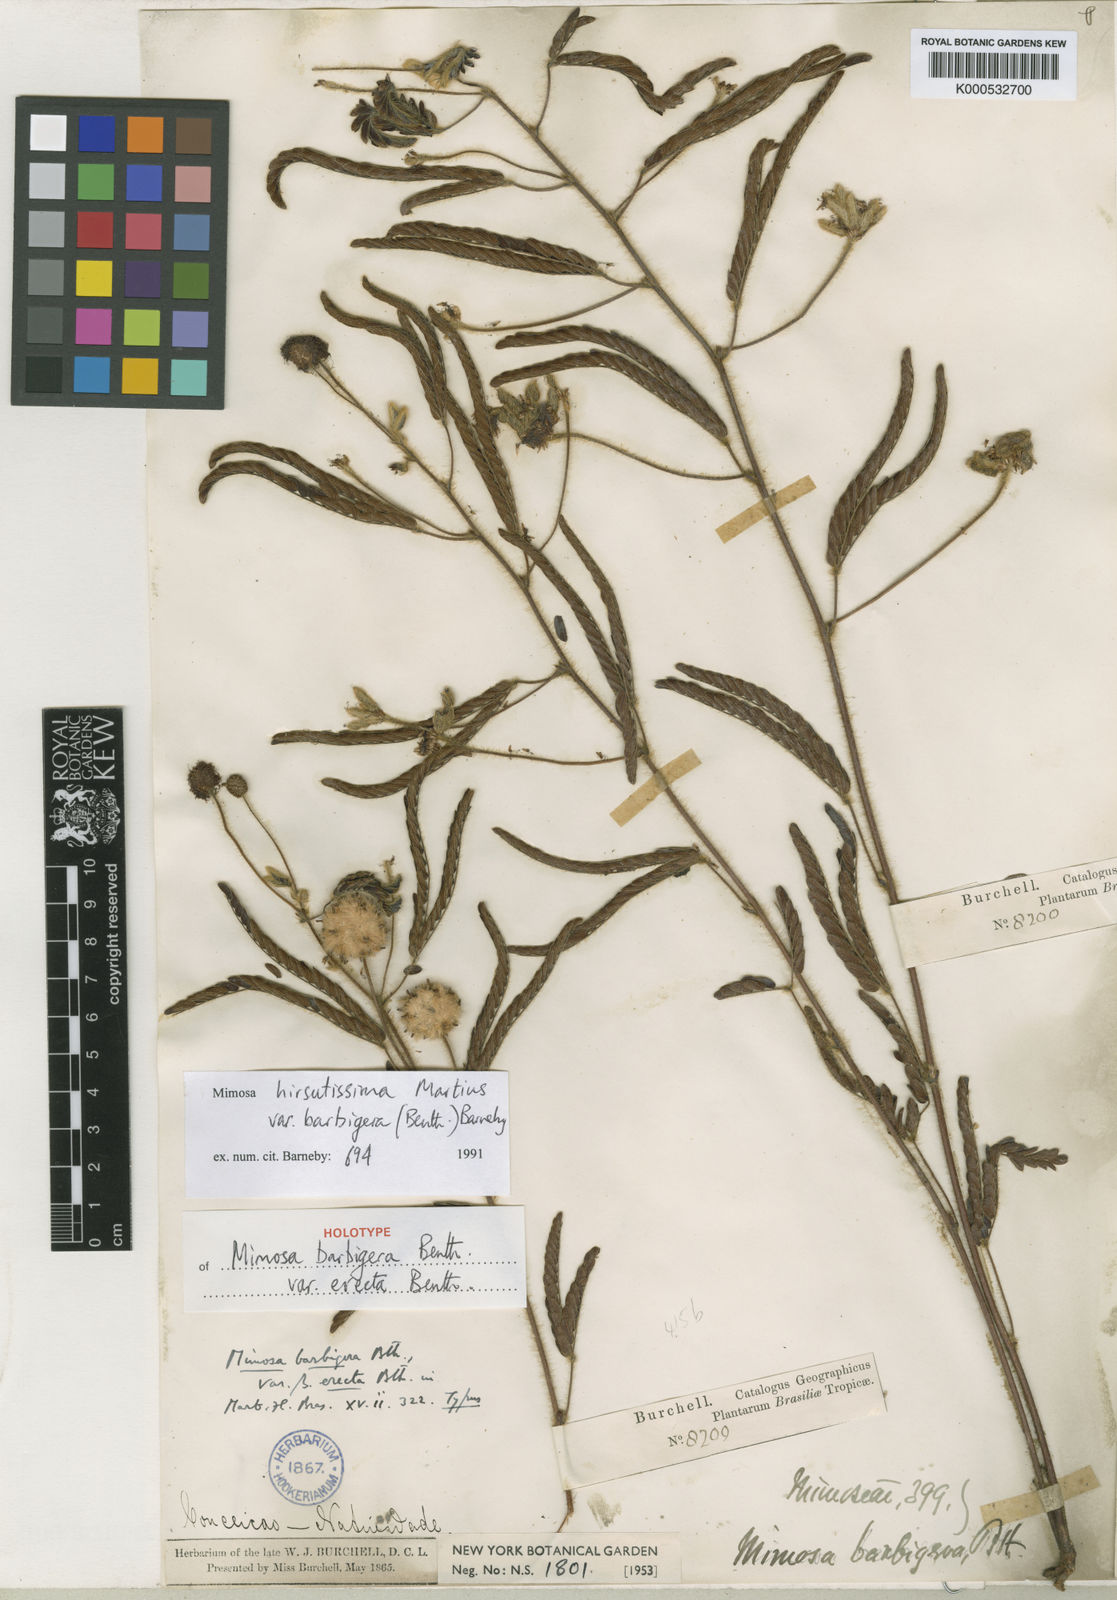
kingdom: Plantae
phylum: Tracheophyta
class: Magnoliopsida
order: Fabales
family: Fabaceae
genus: Mimosa
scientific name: Mimosa hirsutissima
